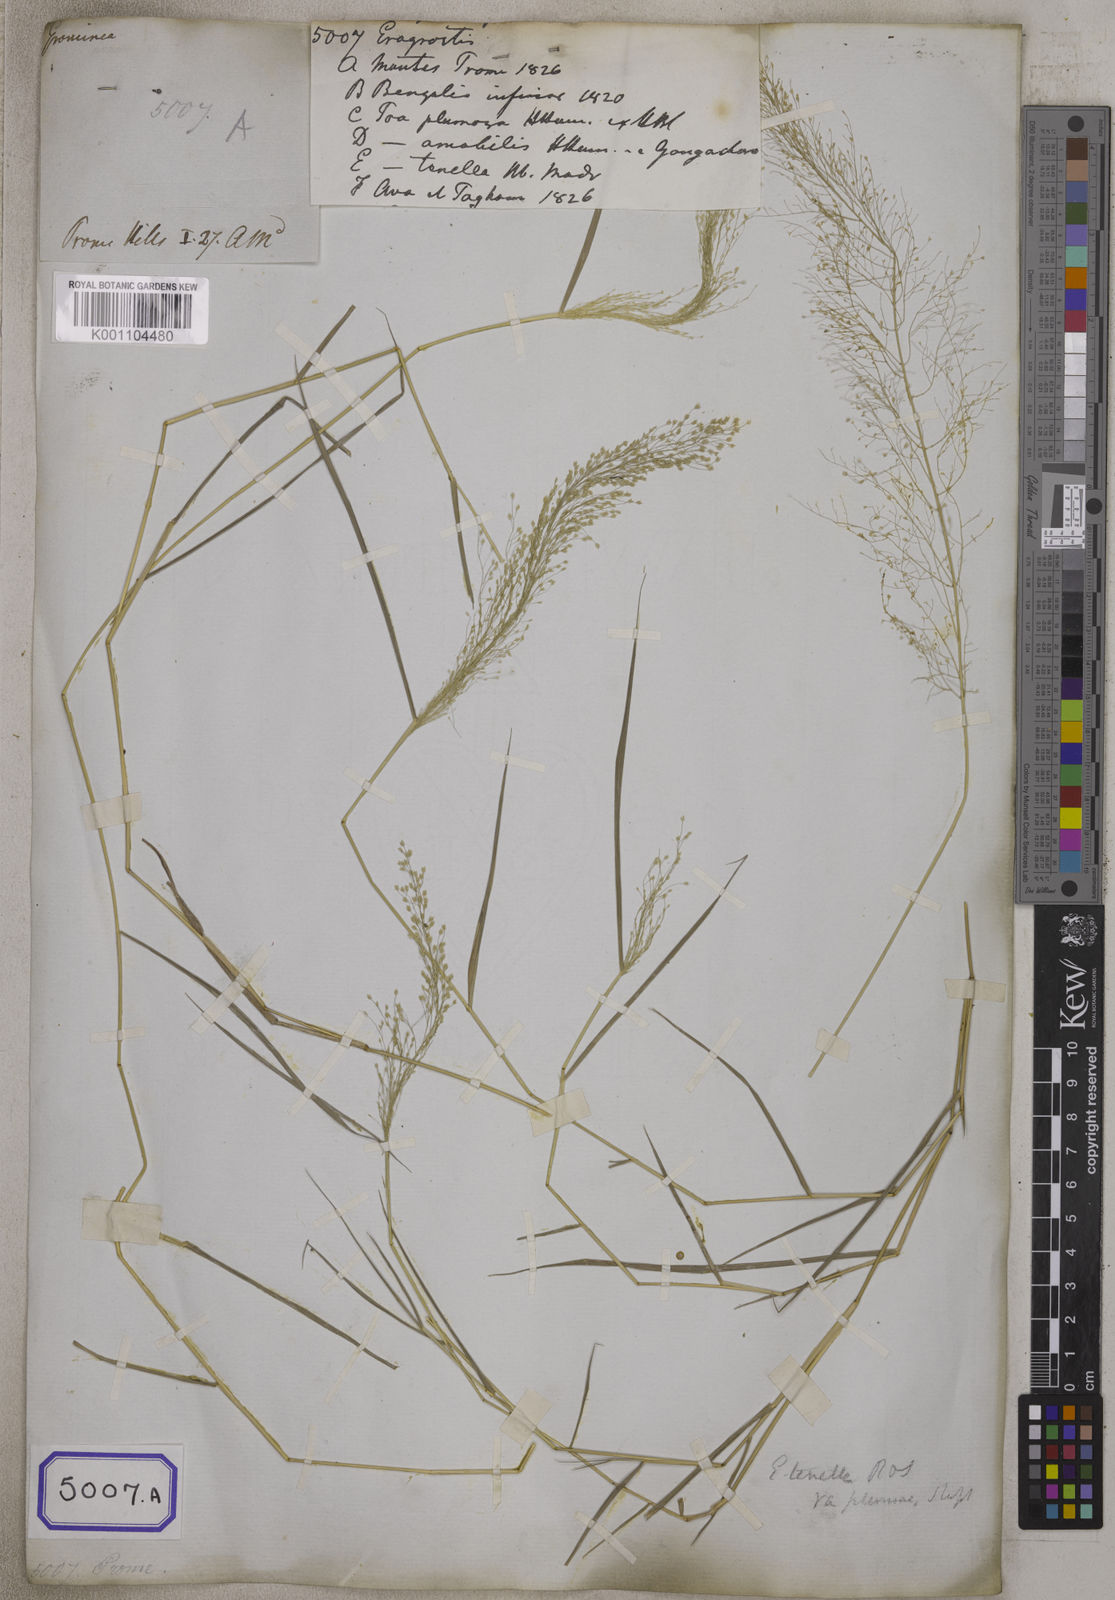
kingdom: Plantae
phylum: Tracheophyta
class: Liliopsida
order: Poales
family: Poaceae
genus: Eragrostis
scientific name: Eragrostis
